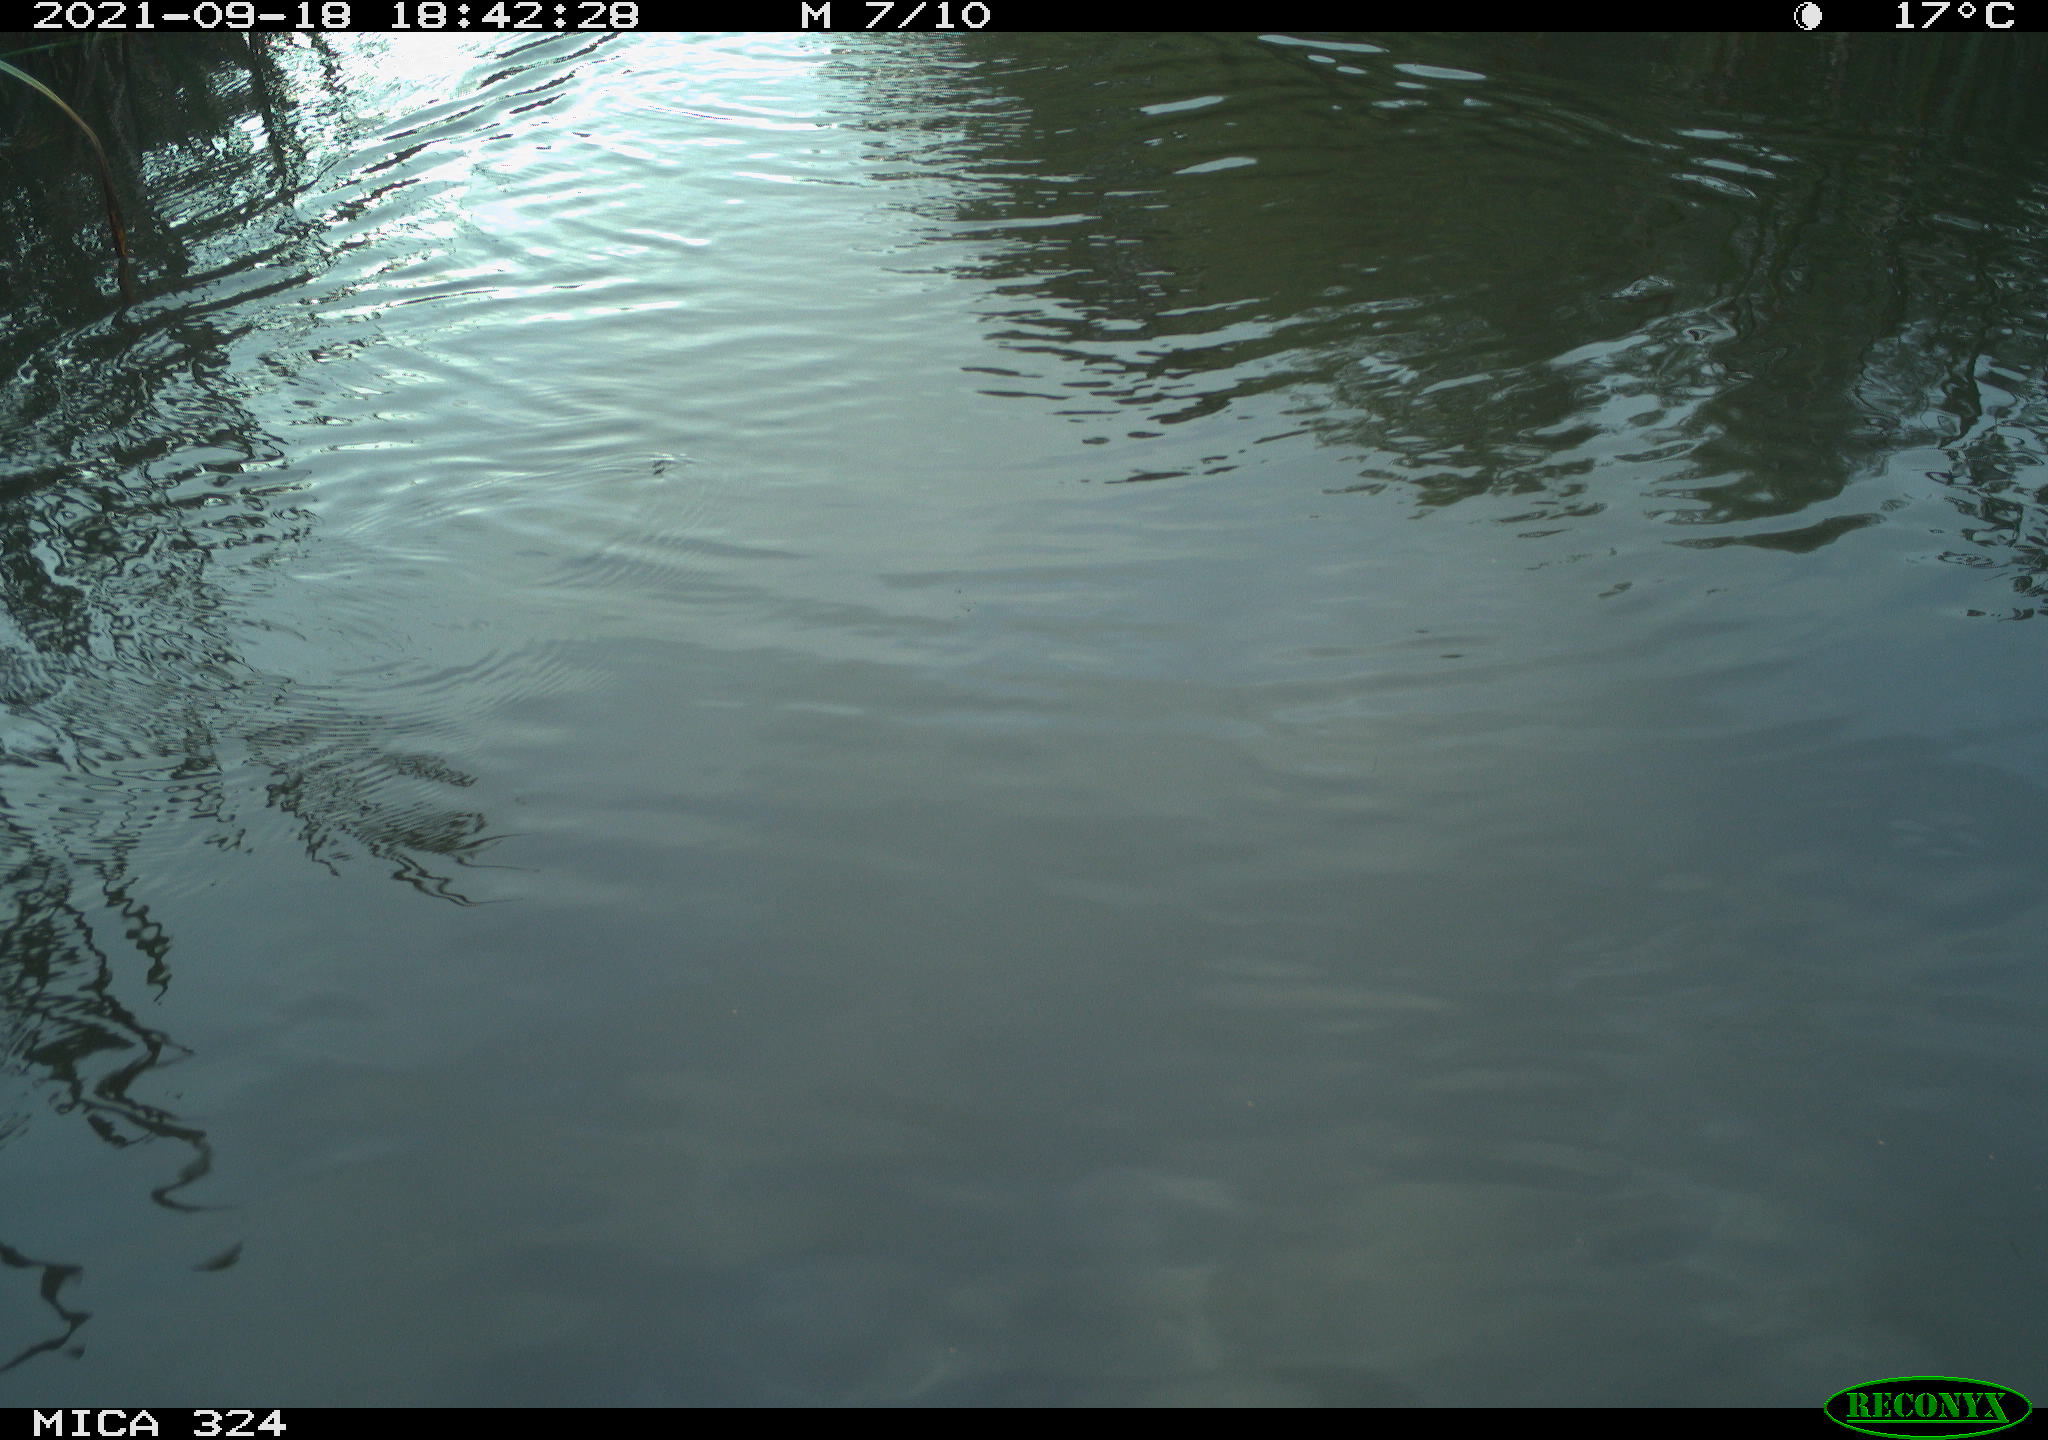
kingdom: Animalia
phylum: Chordata
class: Mammalia
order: Rodentia
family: Cricetidae
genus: Ondatra
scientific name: Ondatra zibethicus
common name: Muskrat
